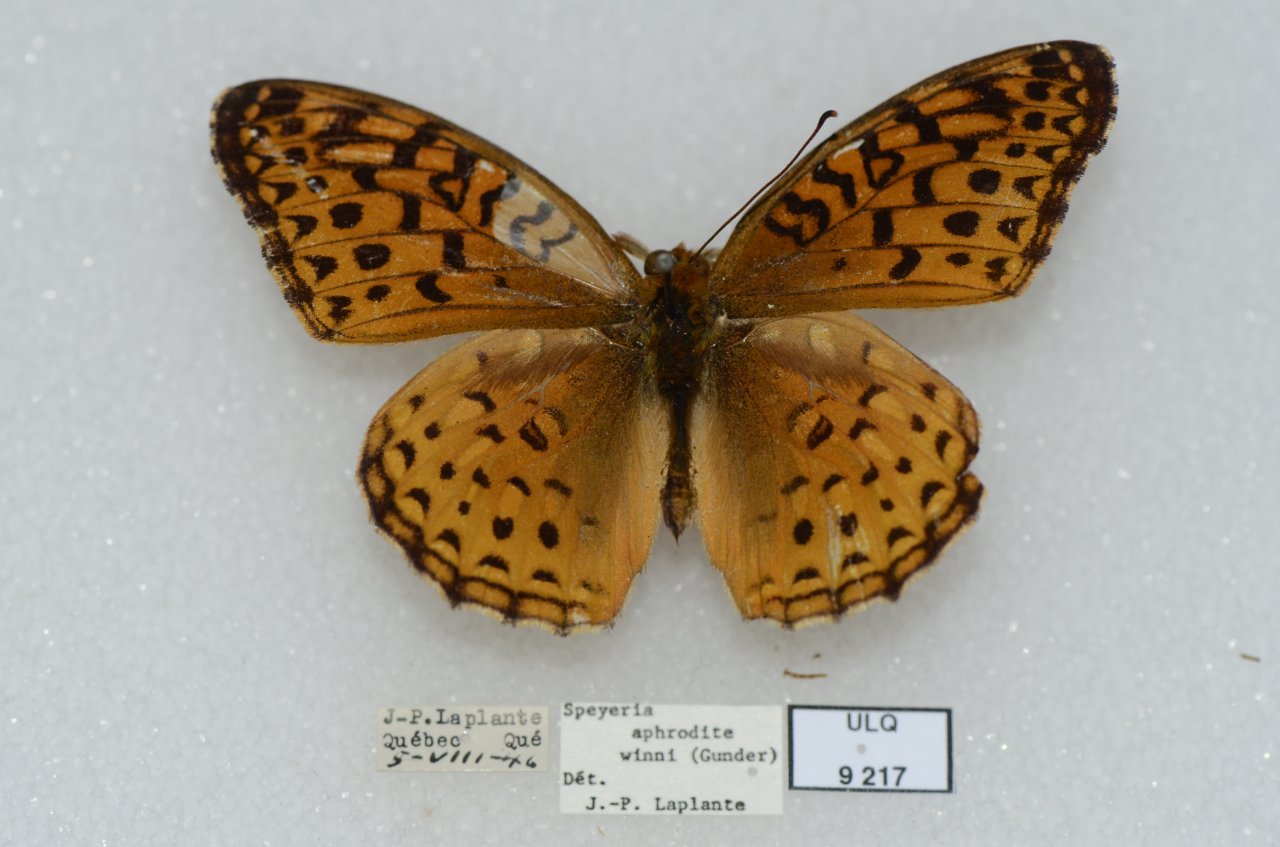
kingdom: Animalia
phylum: Arthropoda
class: Insecta
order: Lepidoptera
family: Nymphalidae
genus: Speyeria
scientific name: Speyeria aphrodite
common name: Aphrodite Fritillary
